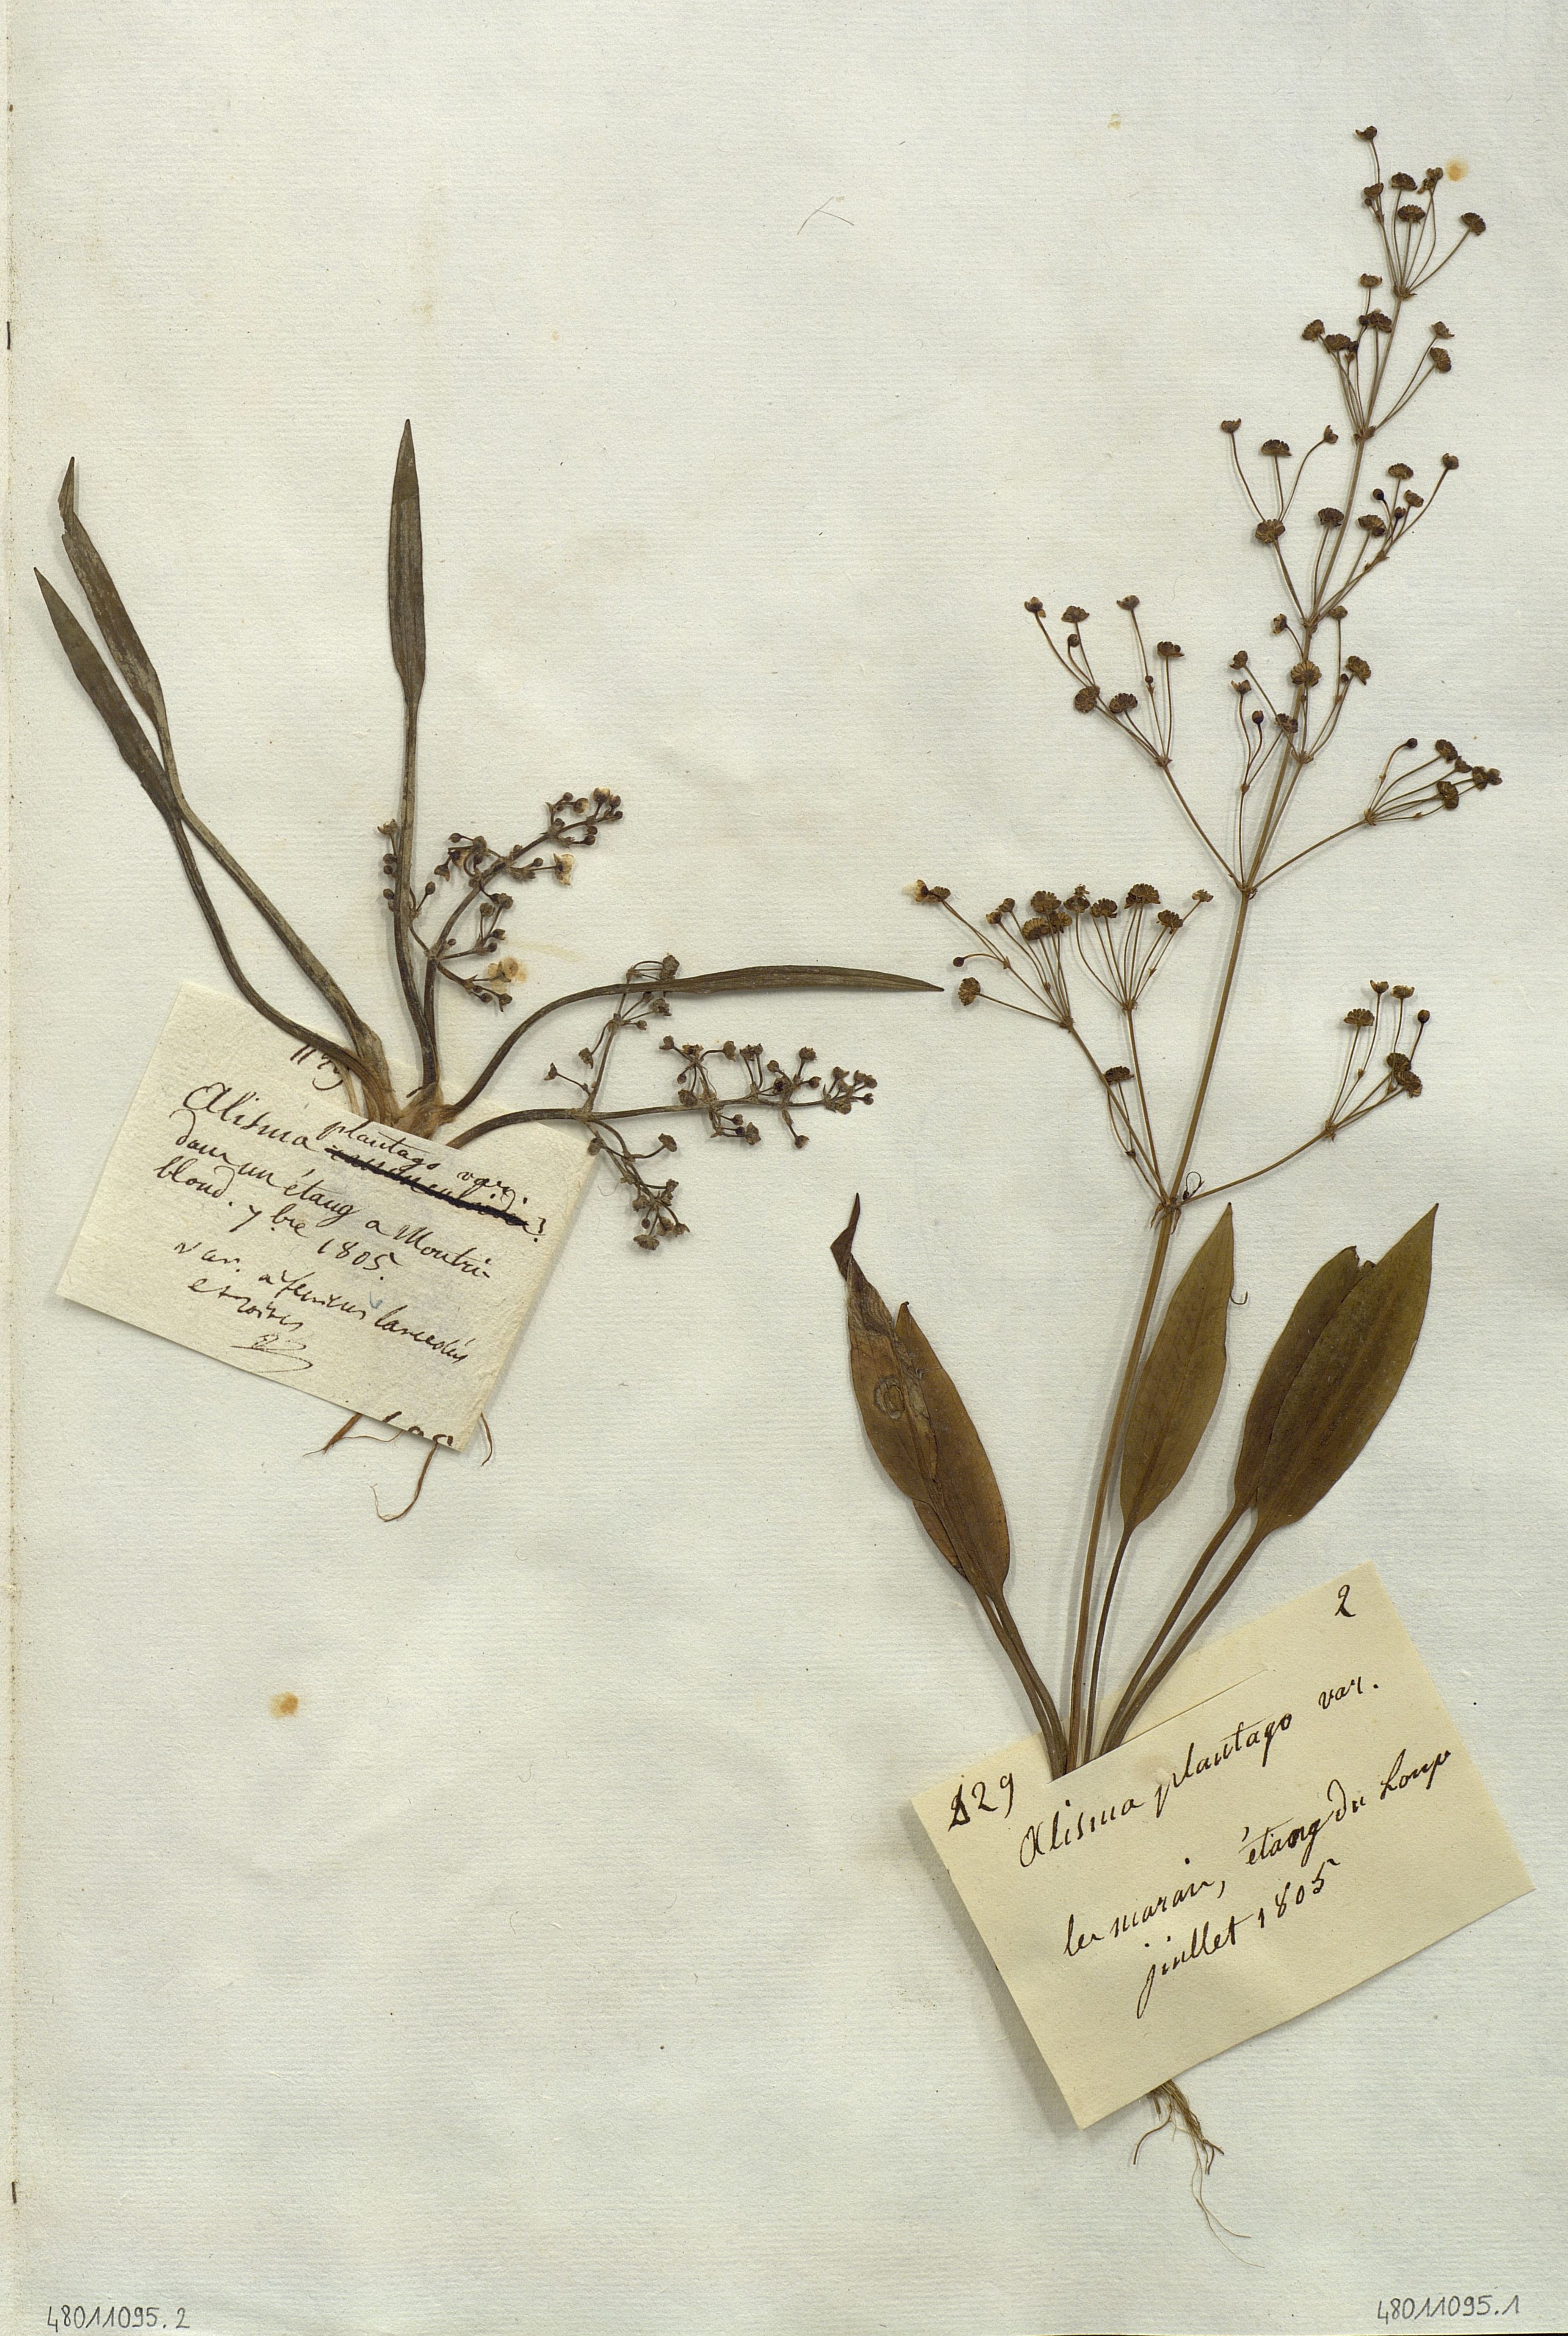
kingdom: Plantae
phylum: Tracheophyta
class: Liliopsida
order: Alismatales
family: Alismataceae
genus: Alisma
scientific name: Alisma plantago-aquatica
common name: Water-plantain
